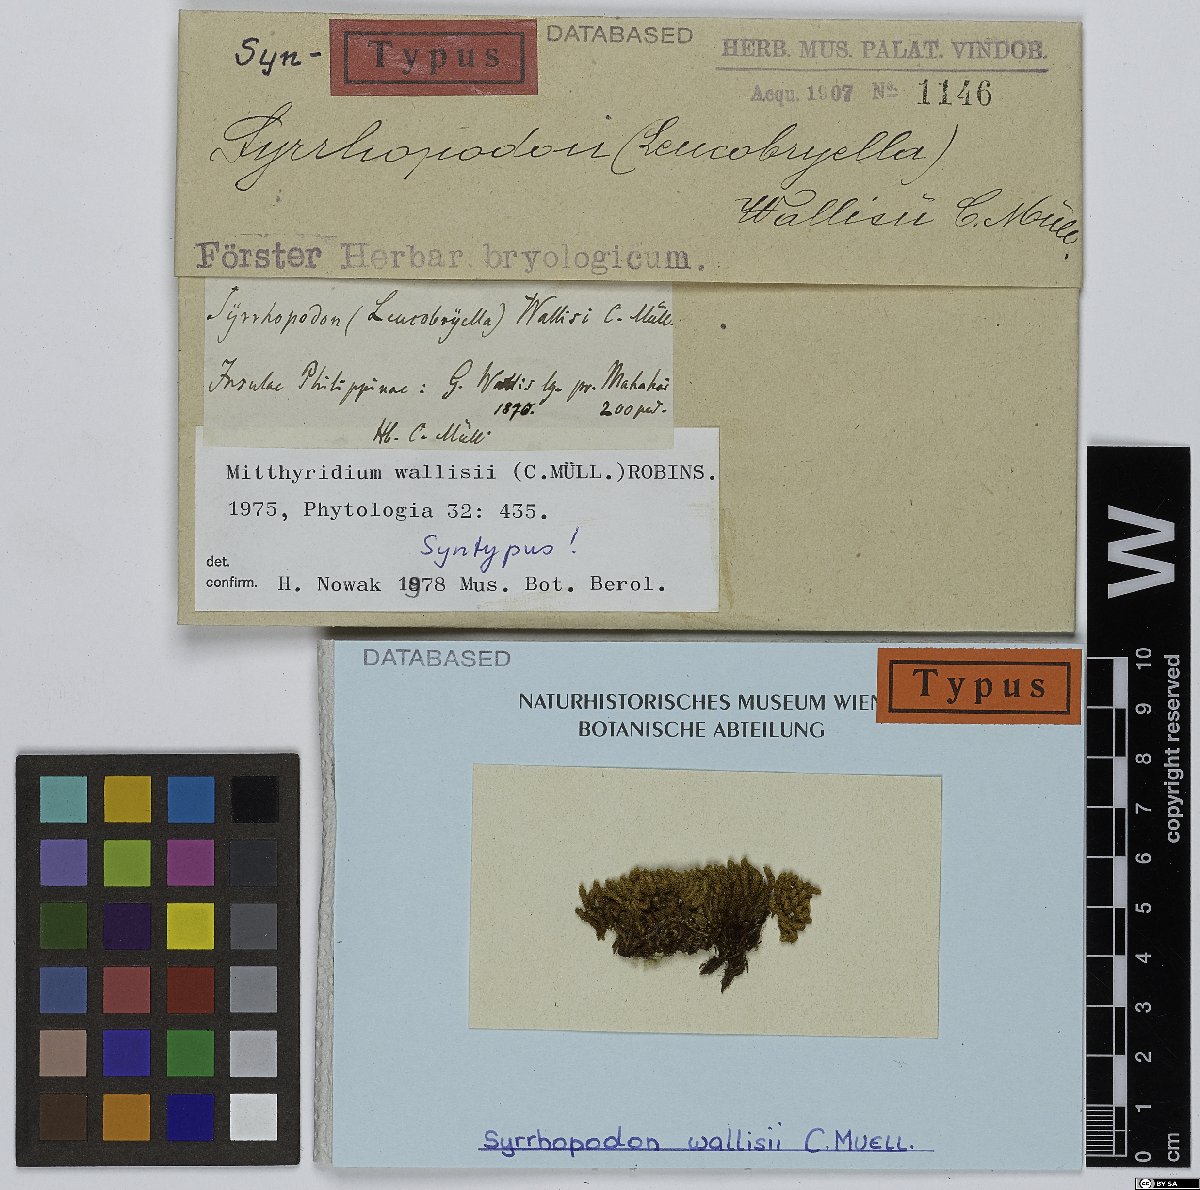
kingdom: Plantae
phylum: Bryophyta
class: Bryopsida
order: Dicranales
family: Calymperaceae
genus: Mitthyridium
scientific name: Mitthyridium wallisii
